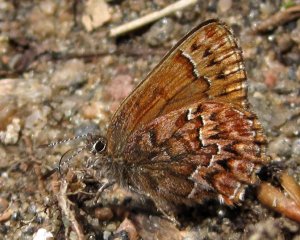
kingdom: Animalia
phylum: Arthropoda
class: Insecta
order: Lepidoptera
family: Lycaenidae
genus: Incisalia
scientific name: Incisalia eryphon
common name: Western Pine Elfin
